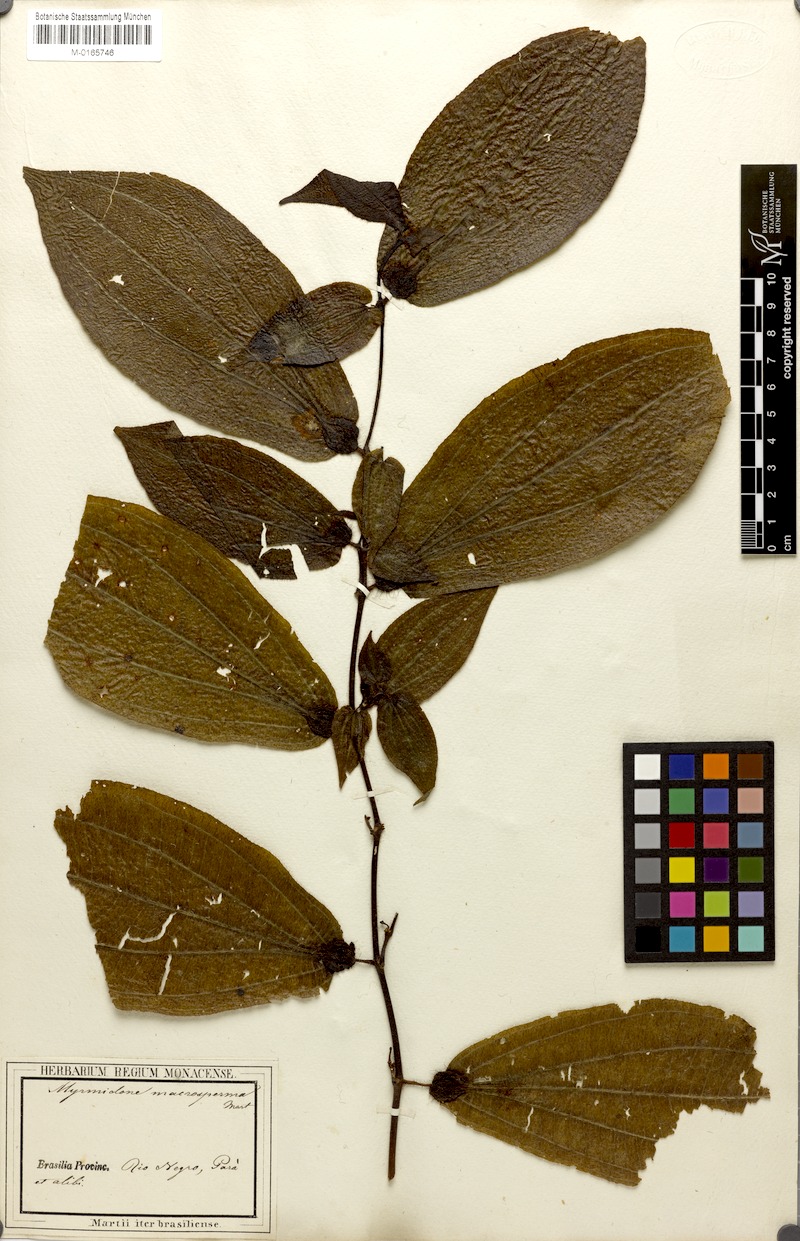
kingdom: Plantae
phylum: Tracheophyta
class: Magnoliopsida
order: Myrtales
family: Melastomataceae
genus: Miconia
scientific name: Miconia macrosperma
